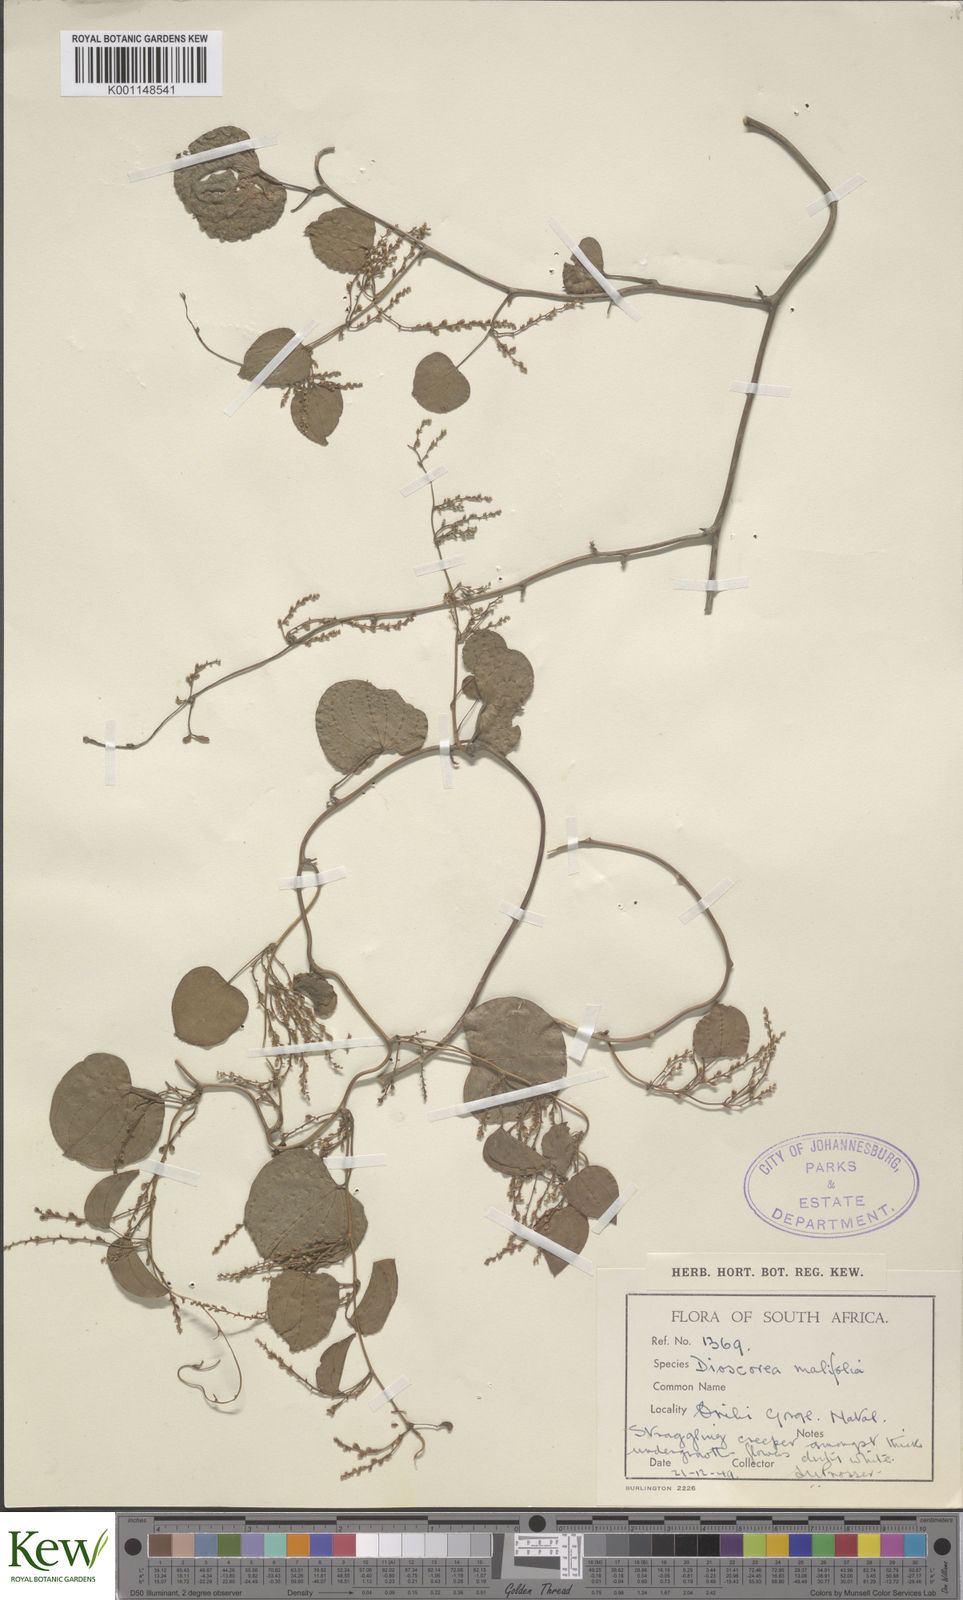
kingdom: Plantae
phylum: Tracheophyta
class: Liliopsida
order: Dioscoreales
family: Dioscoreaceae
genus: Dioscorea
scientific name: Dioscorea cotinifolia
